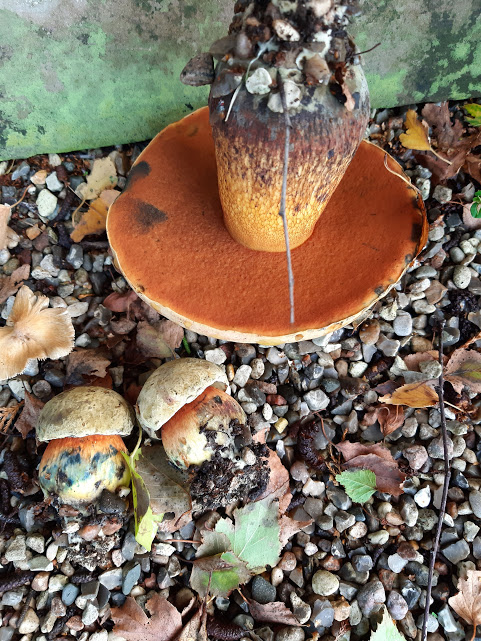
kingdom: Fungi
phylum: Basidiomycota
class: Agaricomycetes
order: Boletales
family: Boletaceae
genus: Suillellus
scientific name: Suillellus luridus
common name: netstokket indigorørhat
